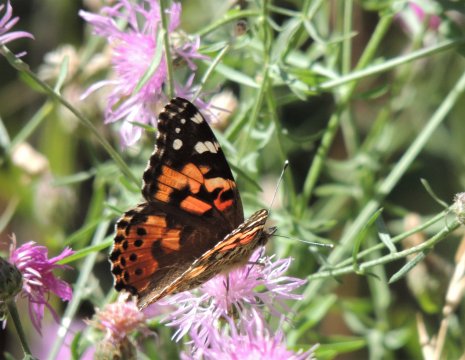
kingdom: Animalia
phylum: Arthropoda
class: Insecta
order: Lepidoptera
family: Nymphalidae
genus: Vanessa
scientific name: Vanessa cardui
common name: Painted Lady
